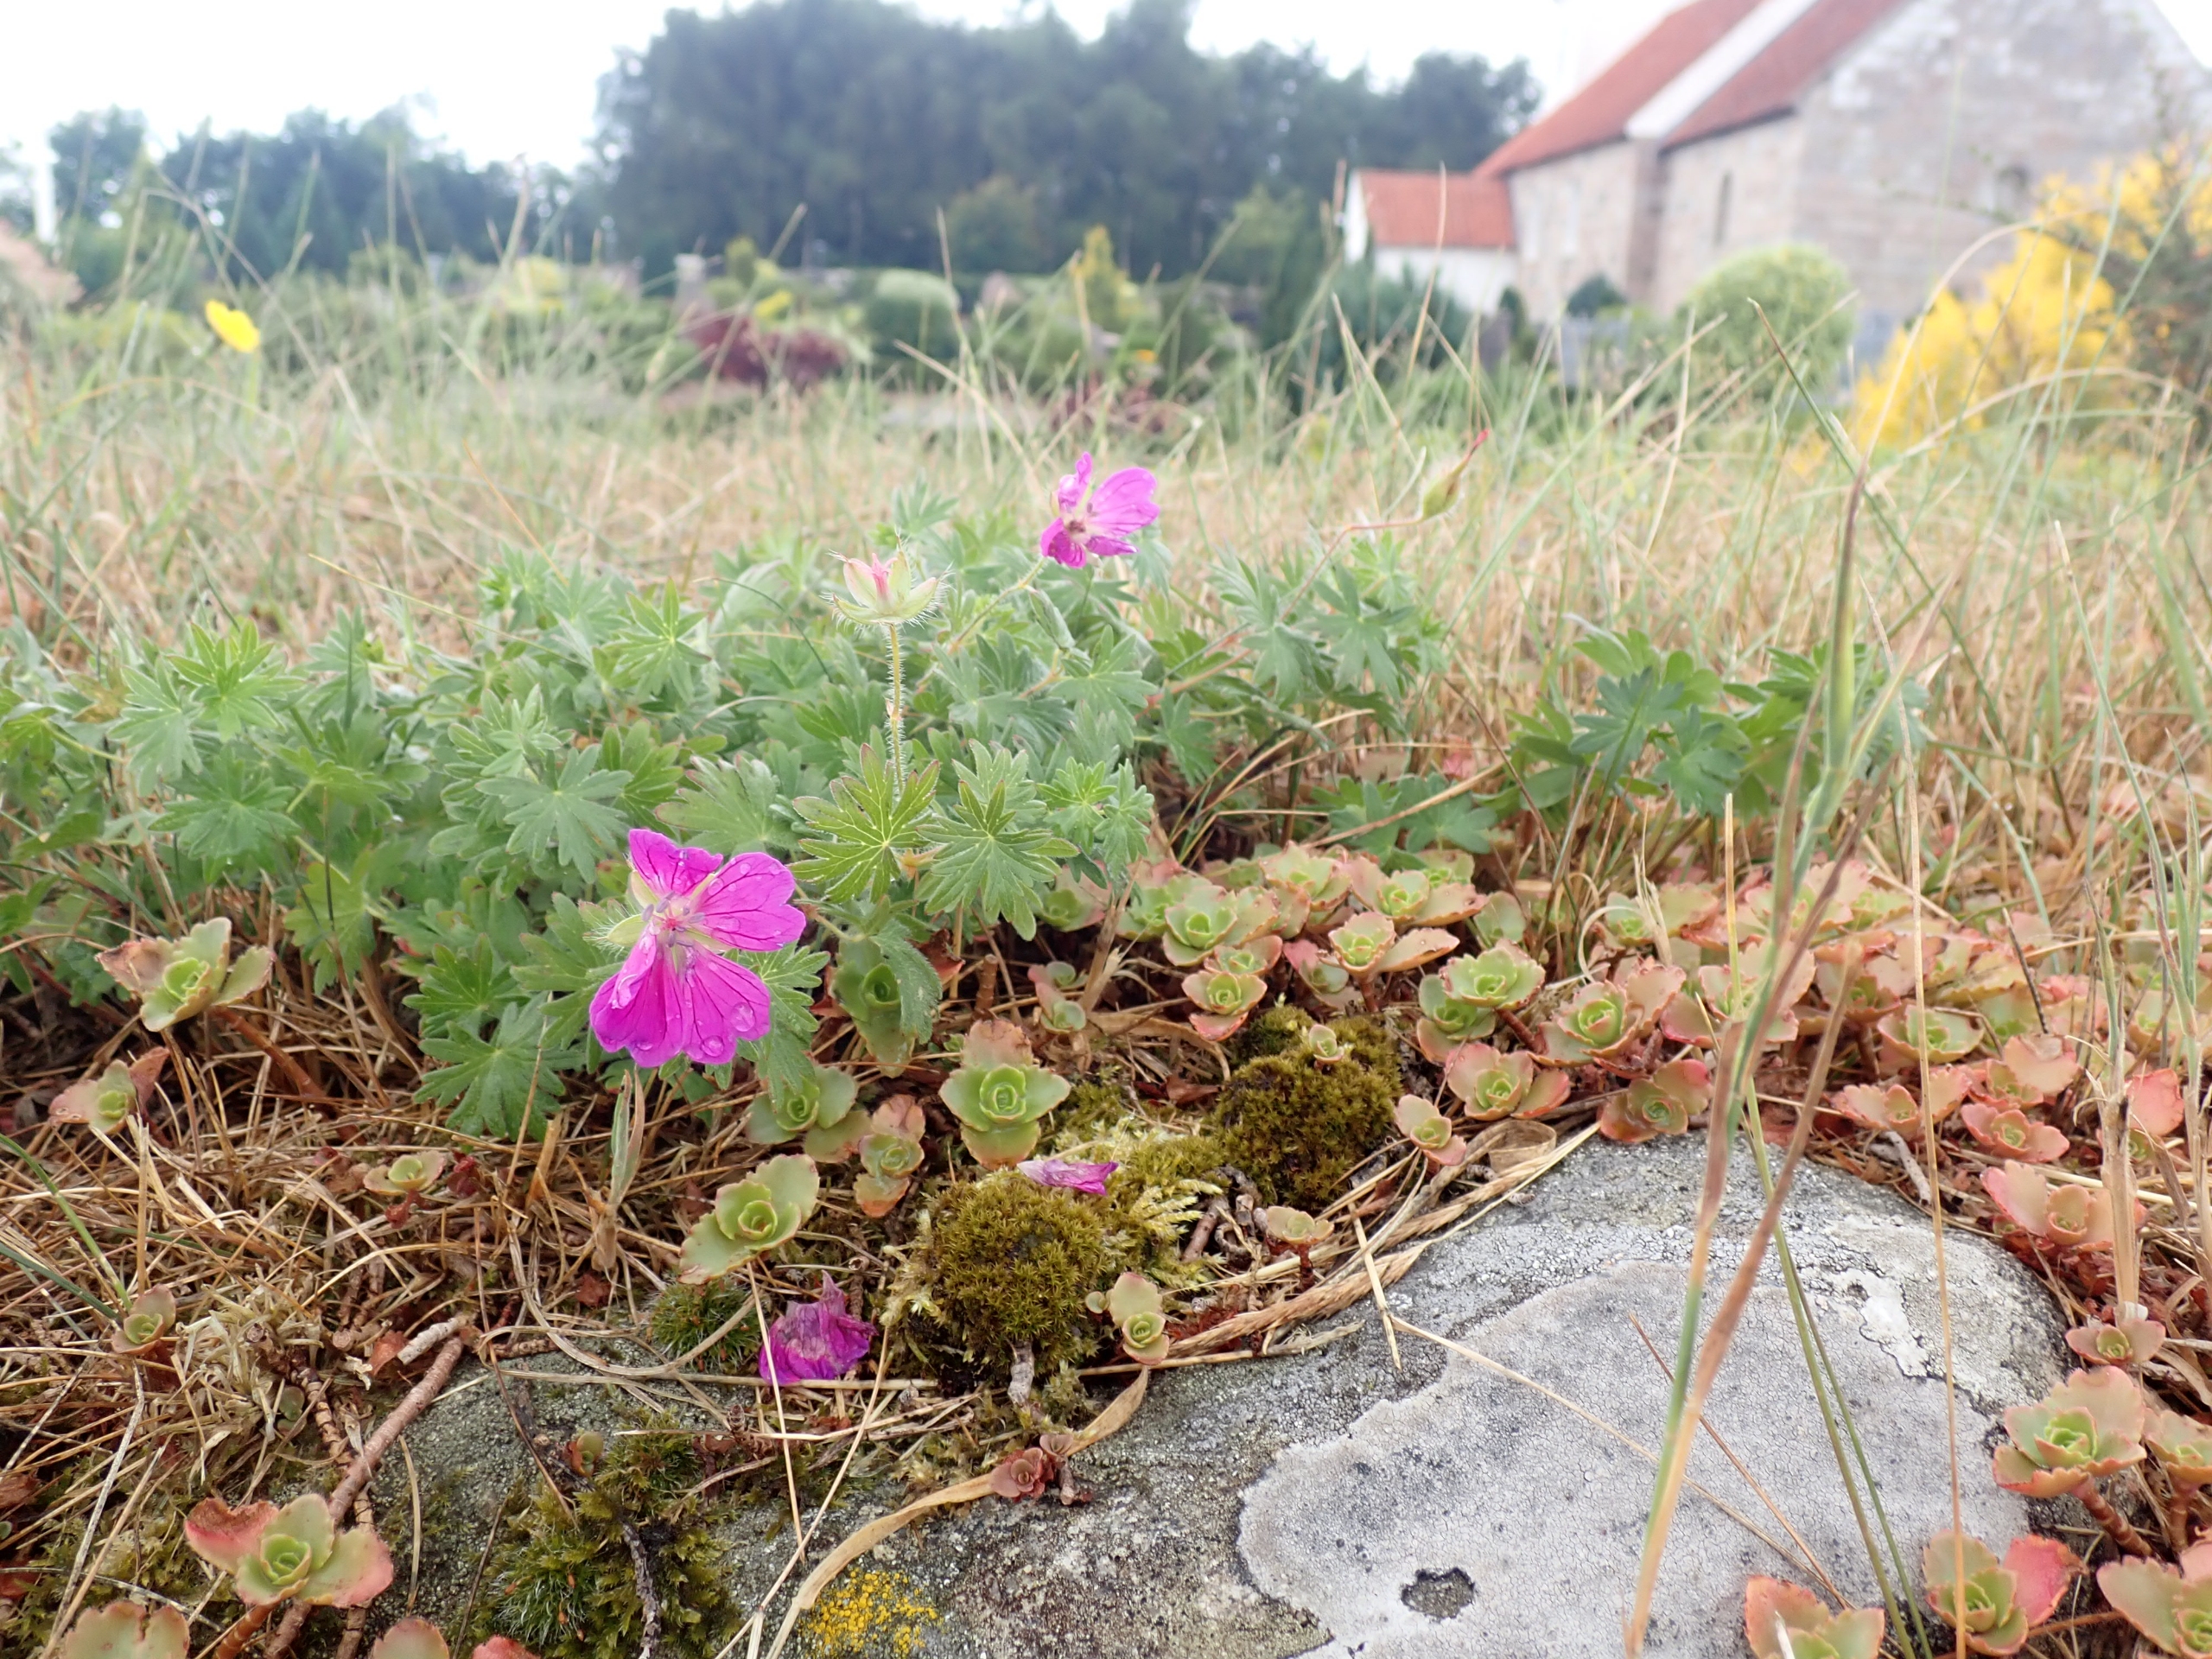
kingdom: Plantae
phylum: Tracheophyta
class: Magnoliopsida
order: Geraniales
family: Geraniaceae
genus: Geranium
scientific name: Geranium sanguineum
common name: Blodrød storkenæb
